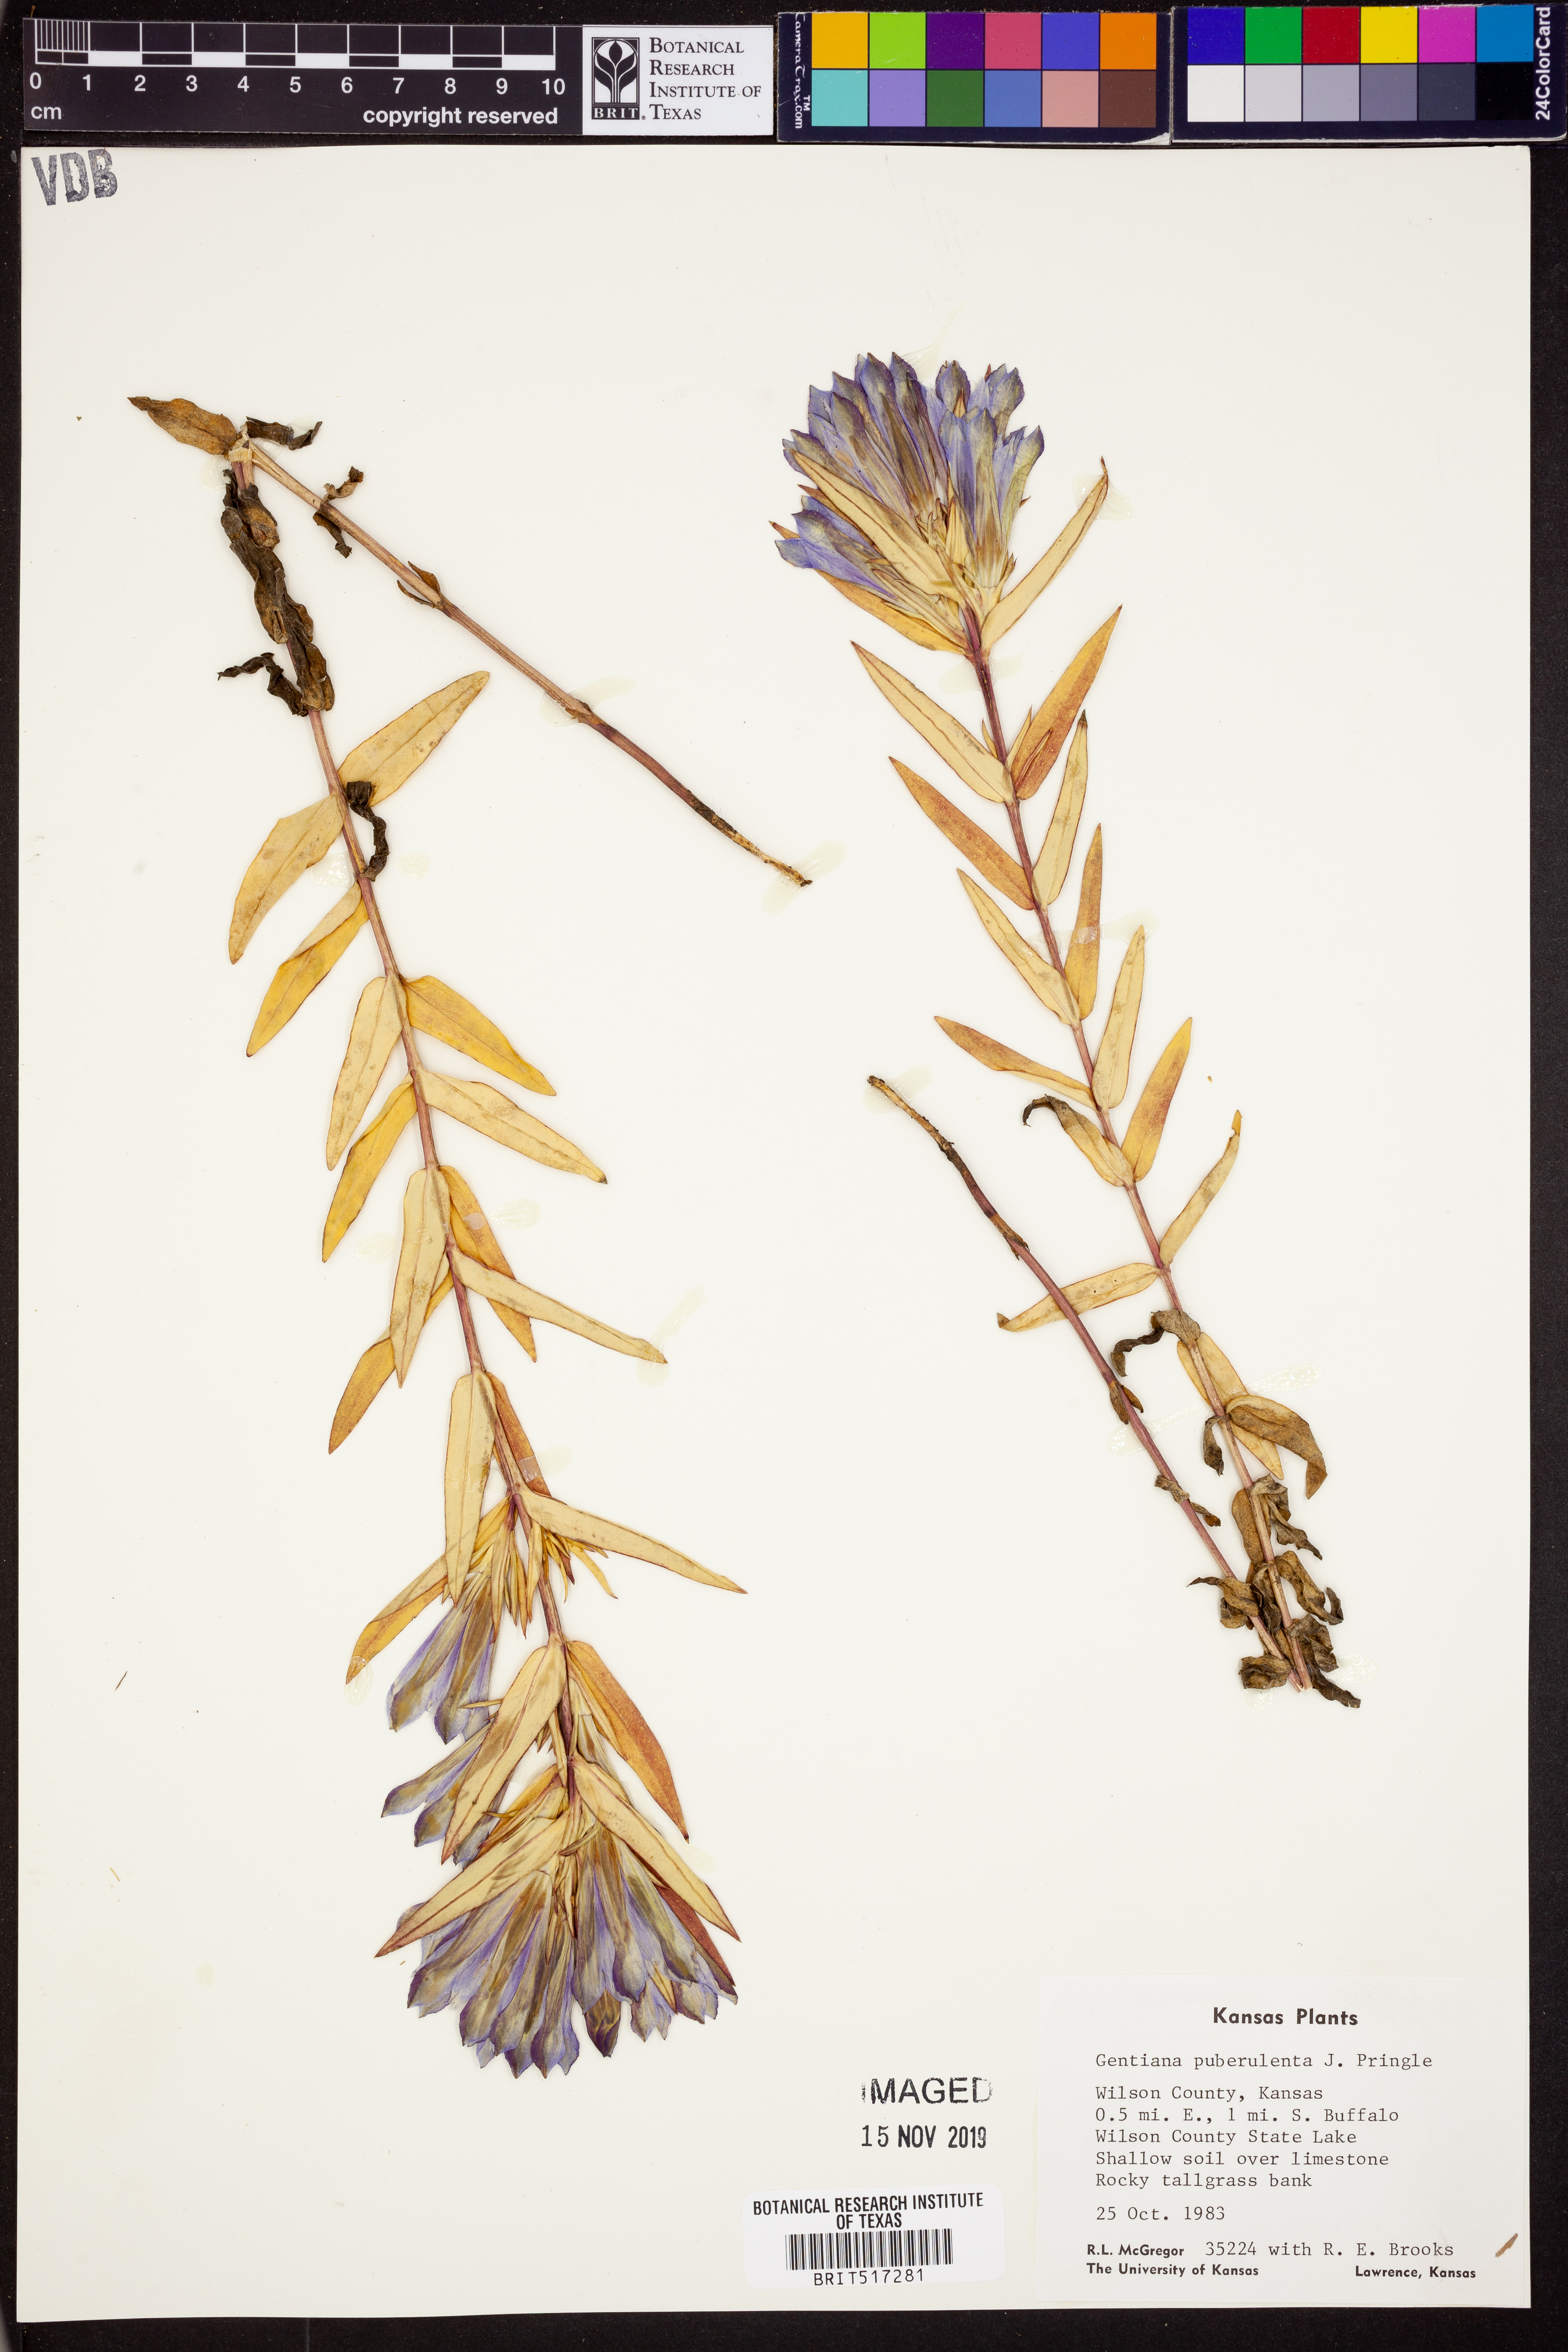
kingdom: Plantae
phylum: Tracheophyta
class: Magnoliopsida
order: Gentianales
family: Gentianaceae
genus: Gentiana
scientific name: Gentiana puberulenta
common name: Downy gentian
